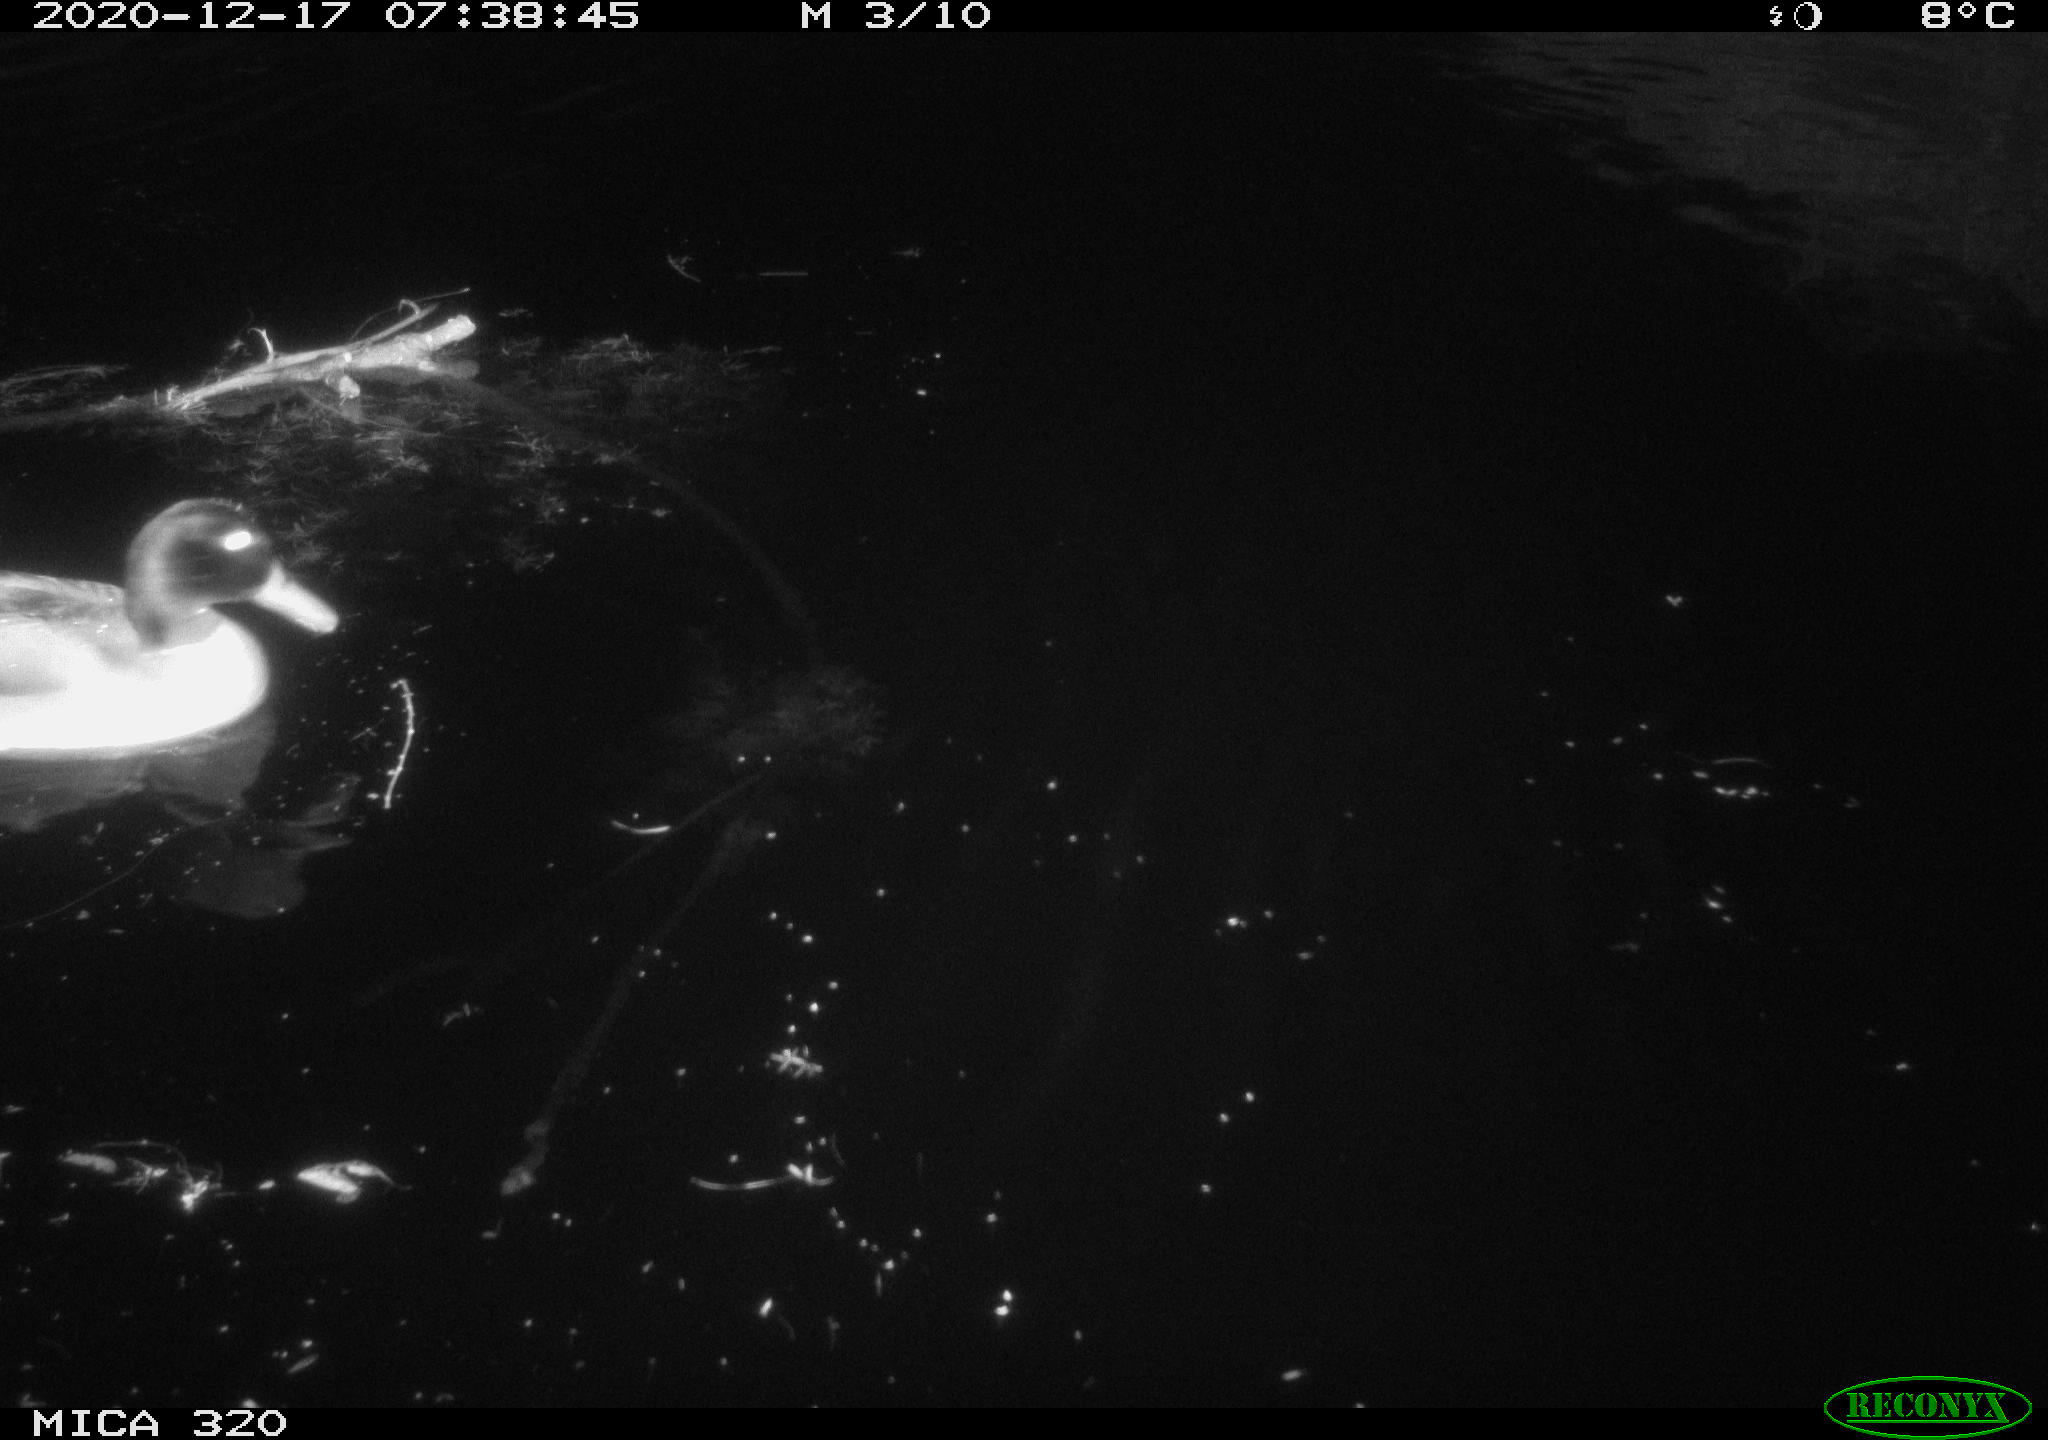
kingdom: Animalia
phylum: Chordata
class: Aves
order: Anseriformes
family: Anatidae
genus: Anas
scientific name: Anas platyrhynchos
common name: Mallard
